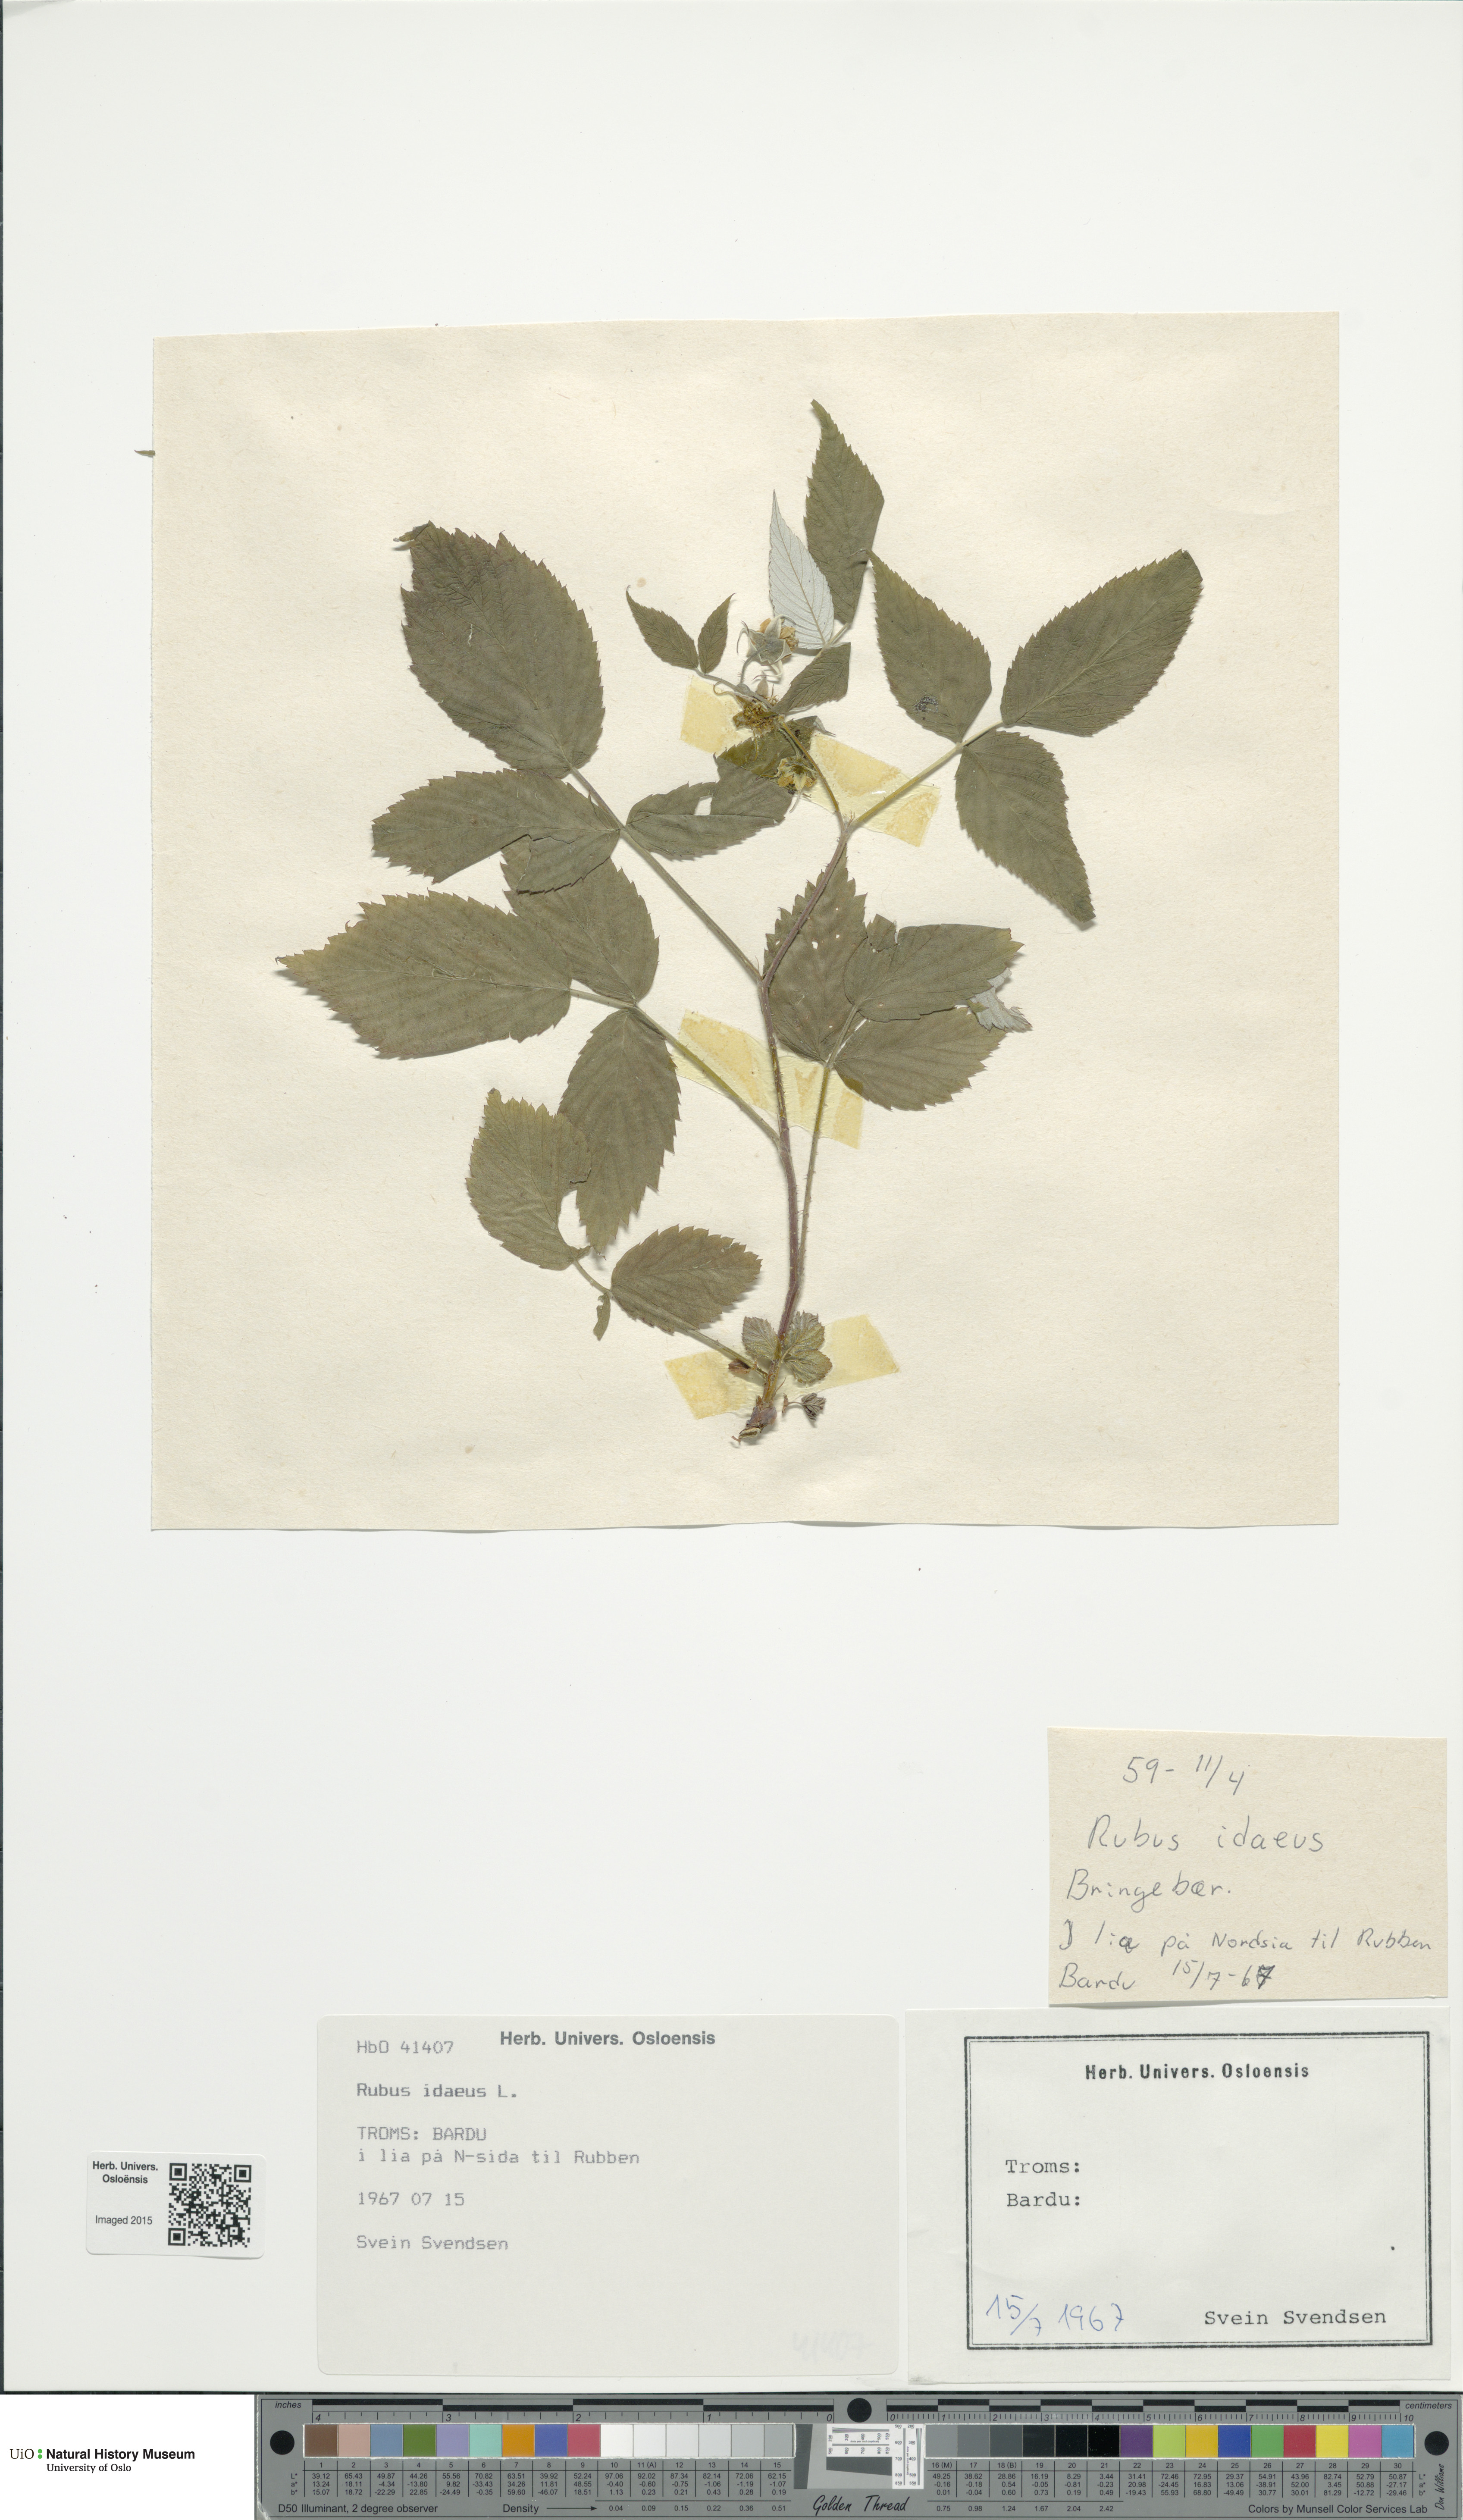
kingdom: Plantae
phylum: Tracheophyta
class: Magnoliopsida
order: Rosales
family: Rosaceae
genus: Rubus
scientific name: Rubus idaeus
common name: Raspberry
